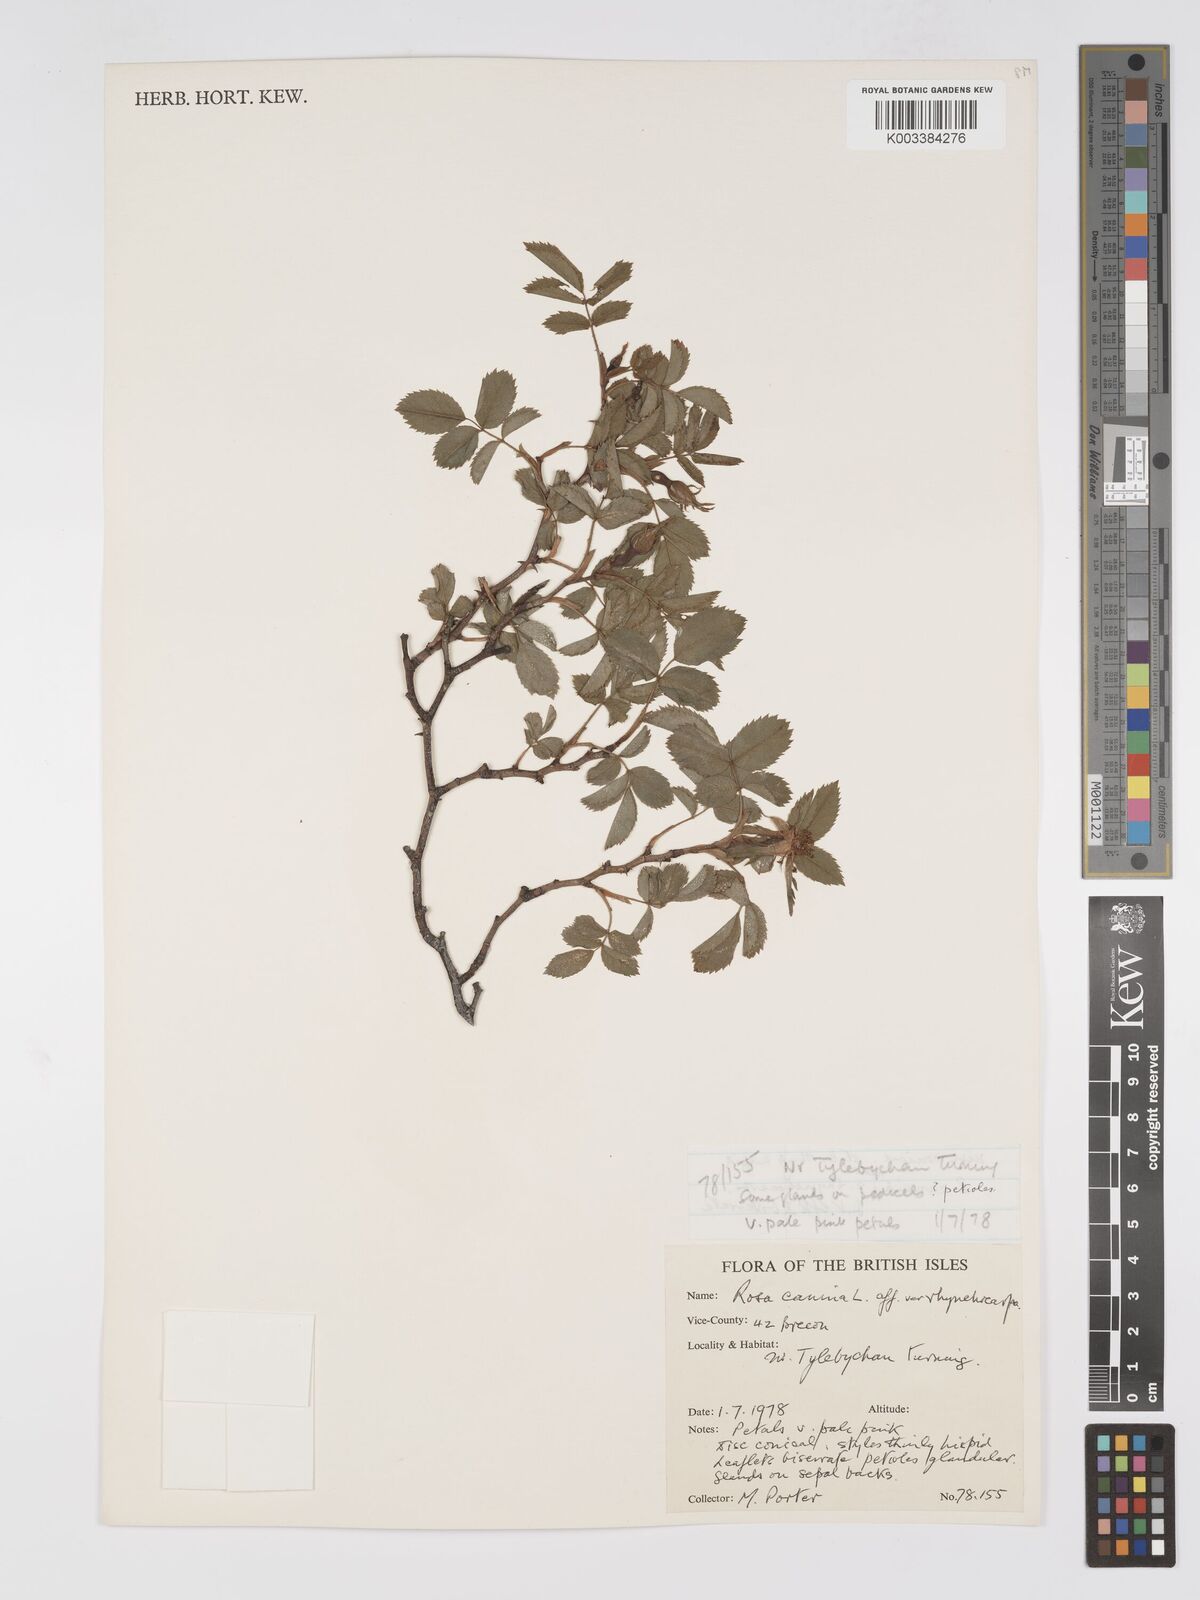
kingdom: Plantae
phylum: Tracheophyta
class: Magnoliopsida
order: Rosales
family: Rosaceae
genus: Rosa
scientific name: Rosa canina
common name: Dog rose
